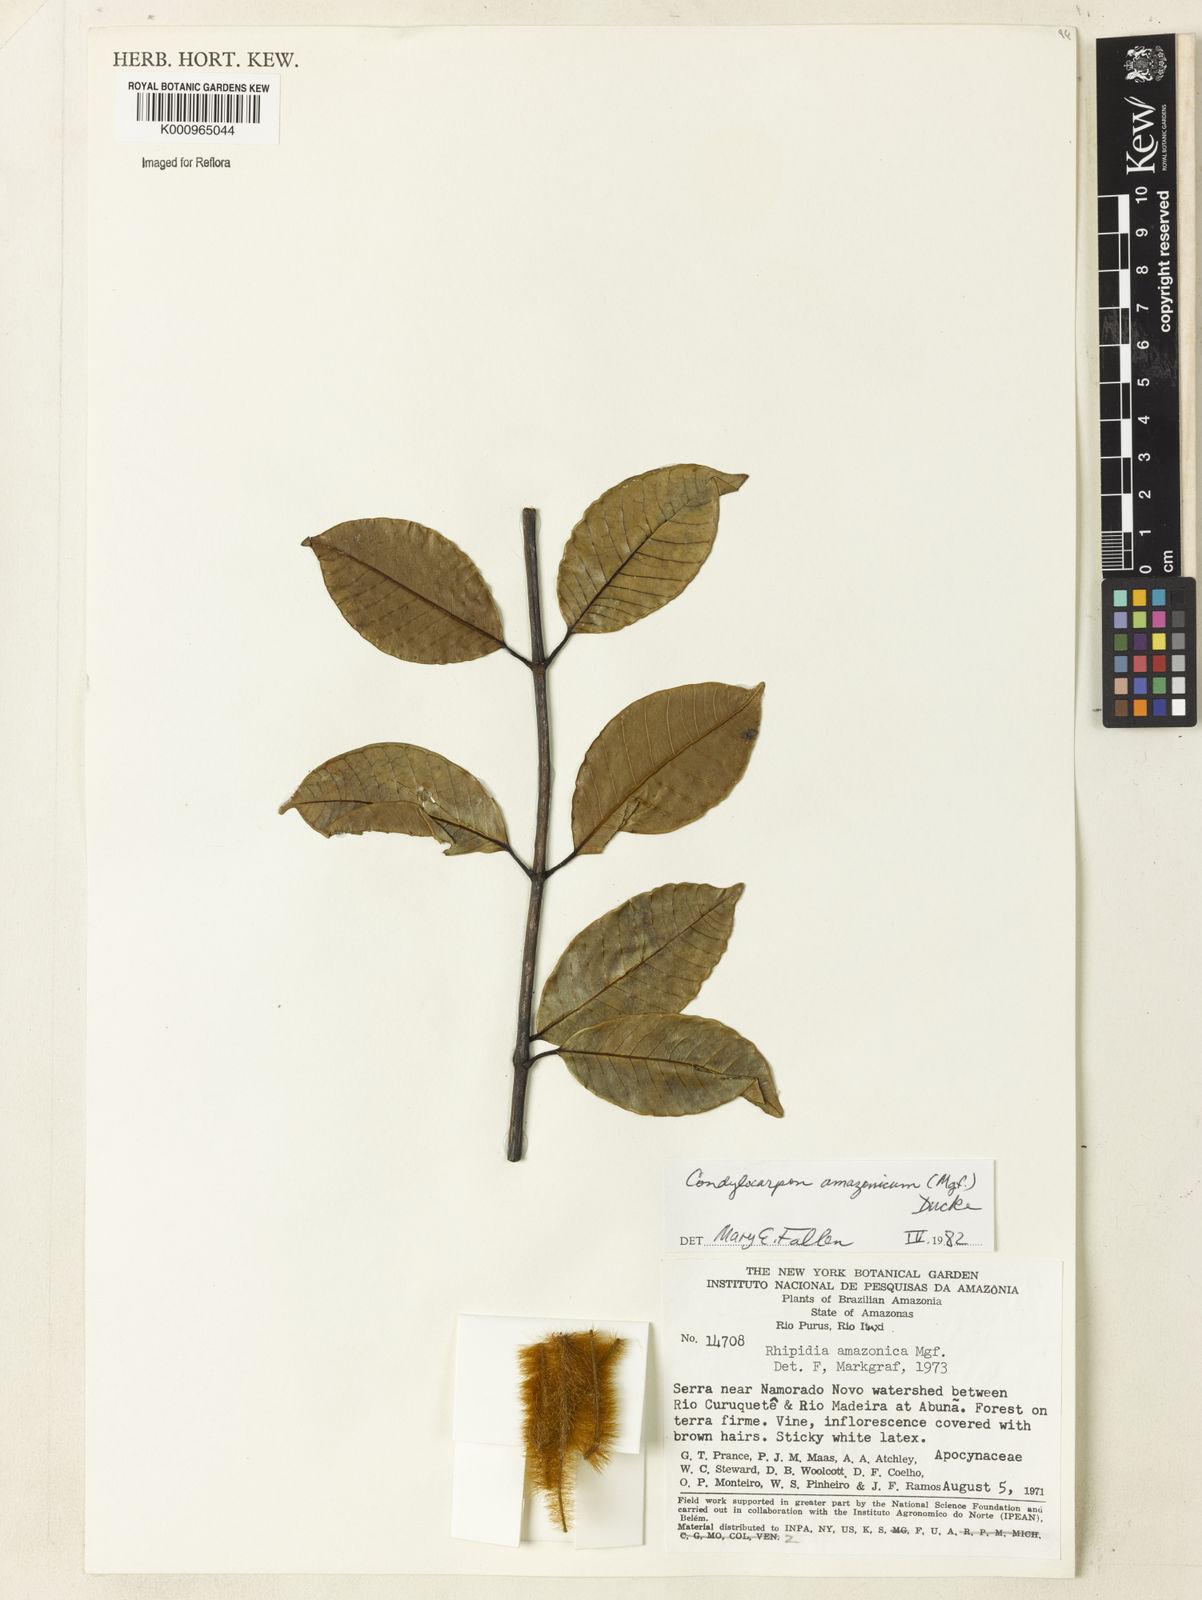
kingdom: Plantae
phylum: Tracheophyta
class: Magnoliopsida
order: Gentianales
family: Apocynaceae
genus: Condylocarpon
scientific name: Condylocarpon amazonicum
